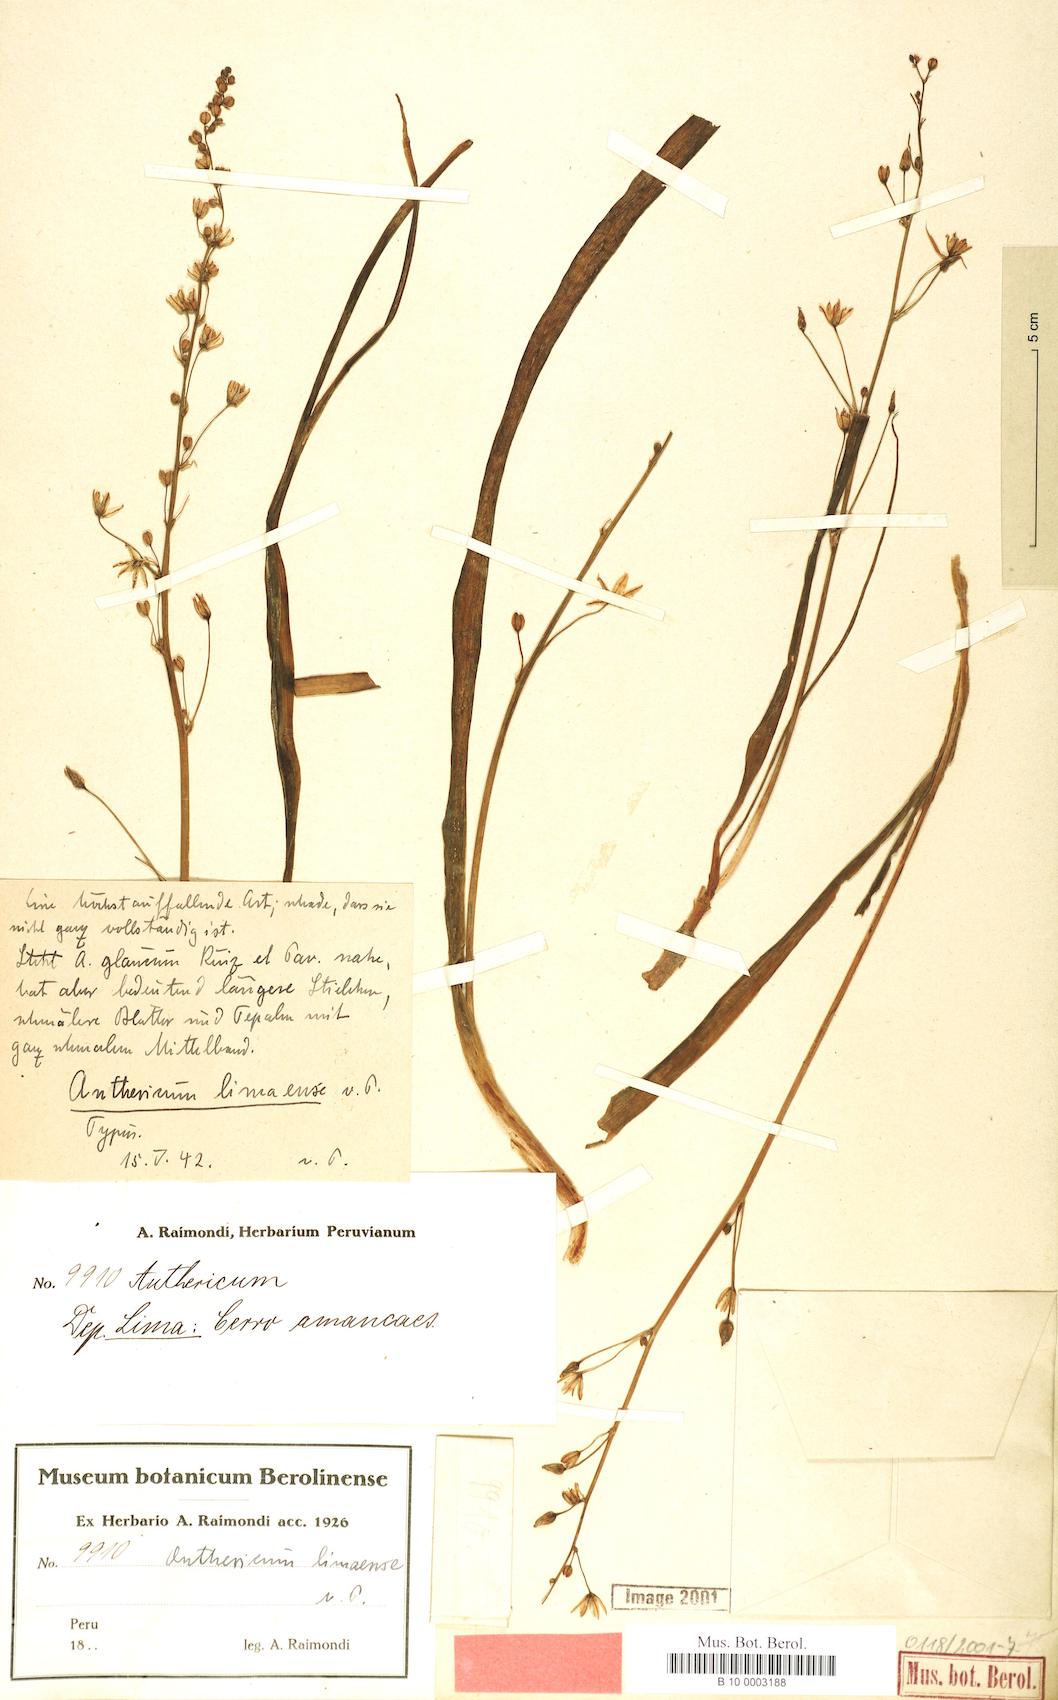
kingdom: Plantae
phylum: Tracheophyta
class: Liliopsida
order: Asparagales
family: Asparagaceae
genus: Oziroe
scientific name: Oziroe biflora
